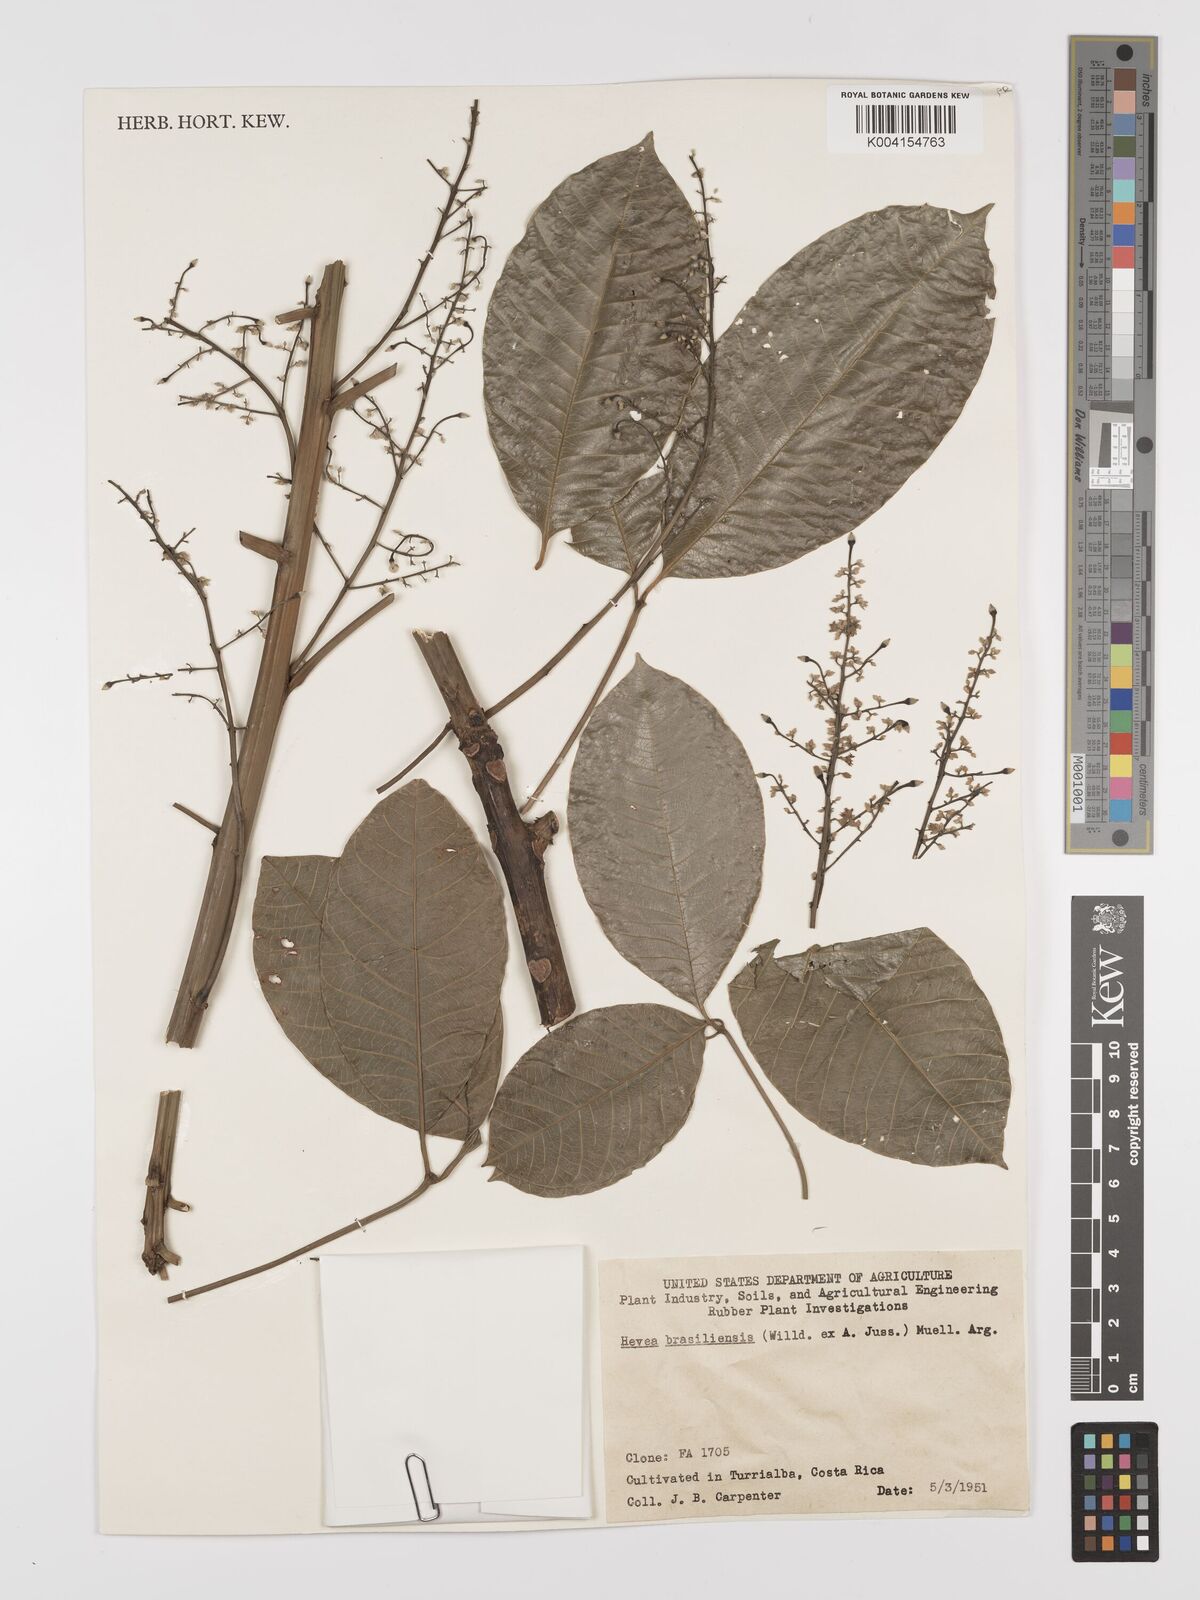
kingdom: Plantae
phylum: Tracheophyta
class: Magnoliopsida
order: Malpighiales
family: Euphorbiaceae
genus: Hevea
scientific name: Hevea brasiliensis
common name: Natural rubber
